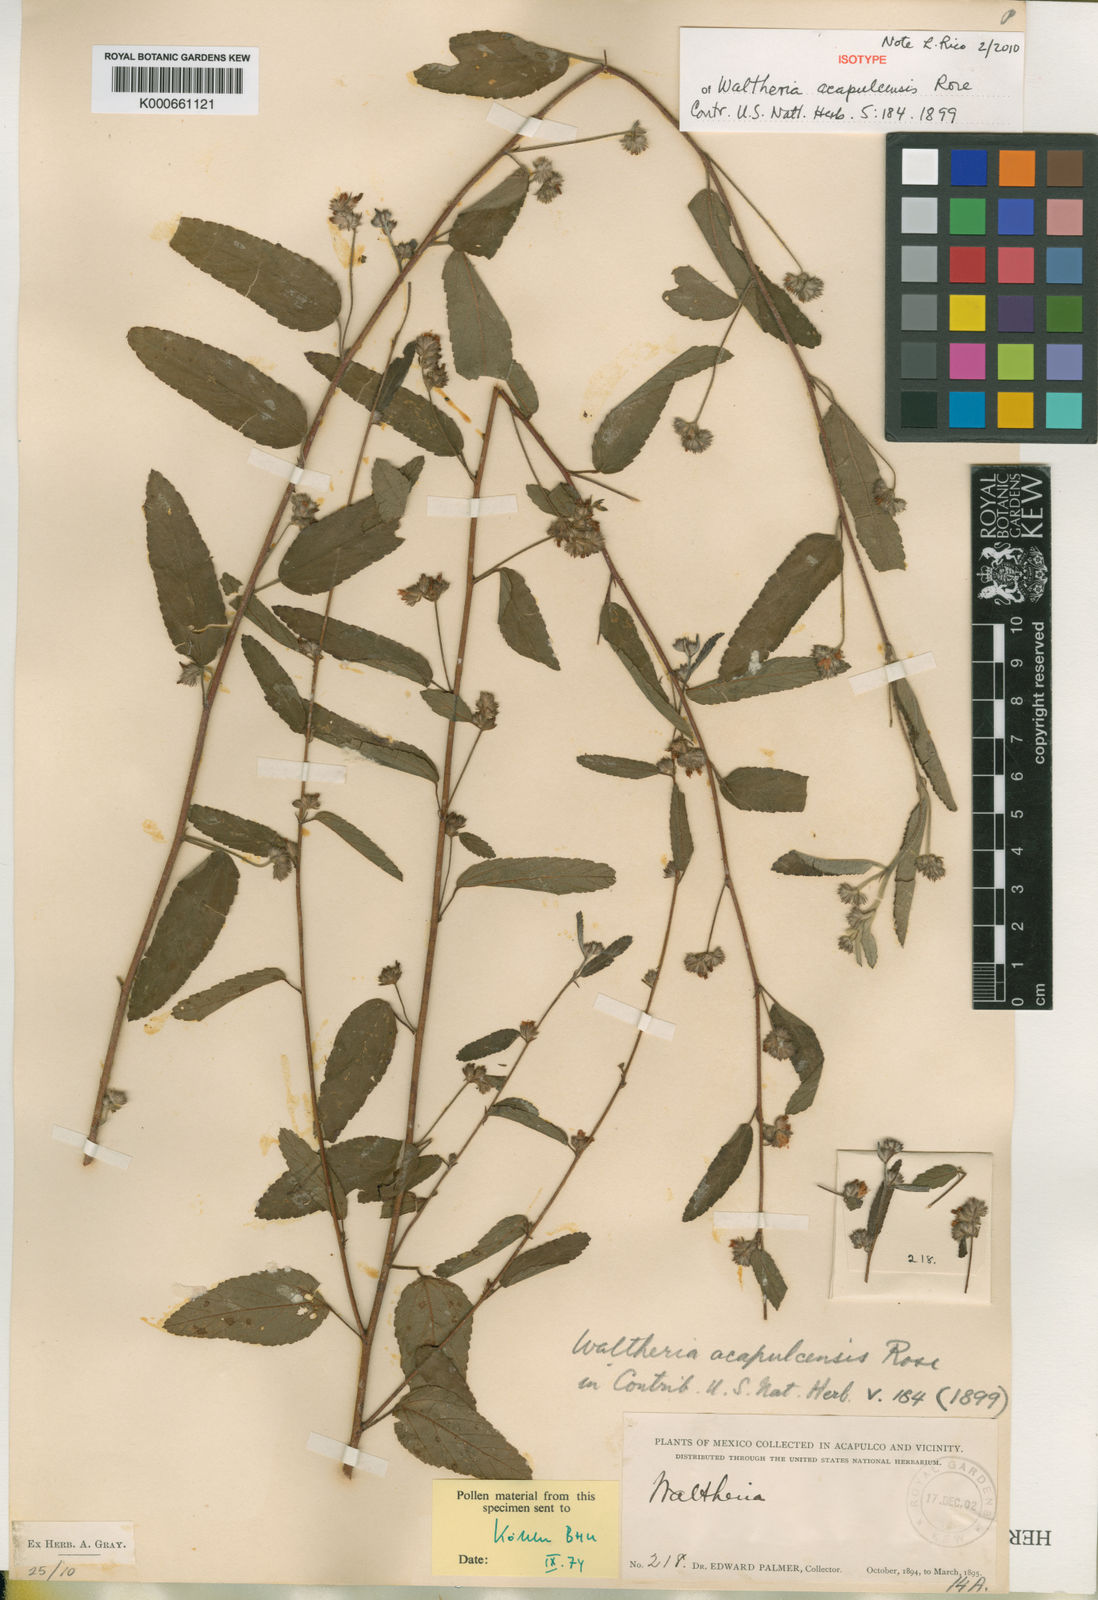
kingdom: Plantae
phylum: Tracheophyta
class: Magnoliopsida
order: Malvales
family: Malvaceae
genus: Waltheria
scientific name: Waltheria acapulcensis
